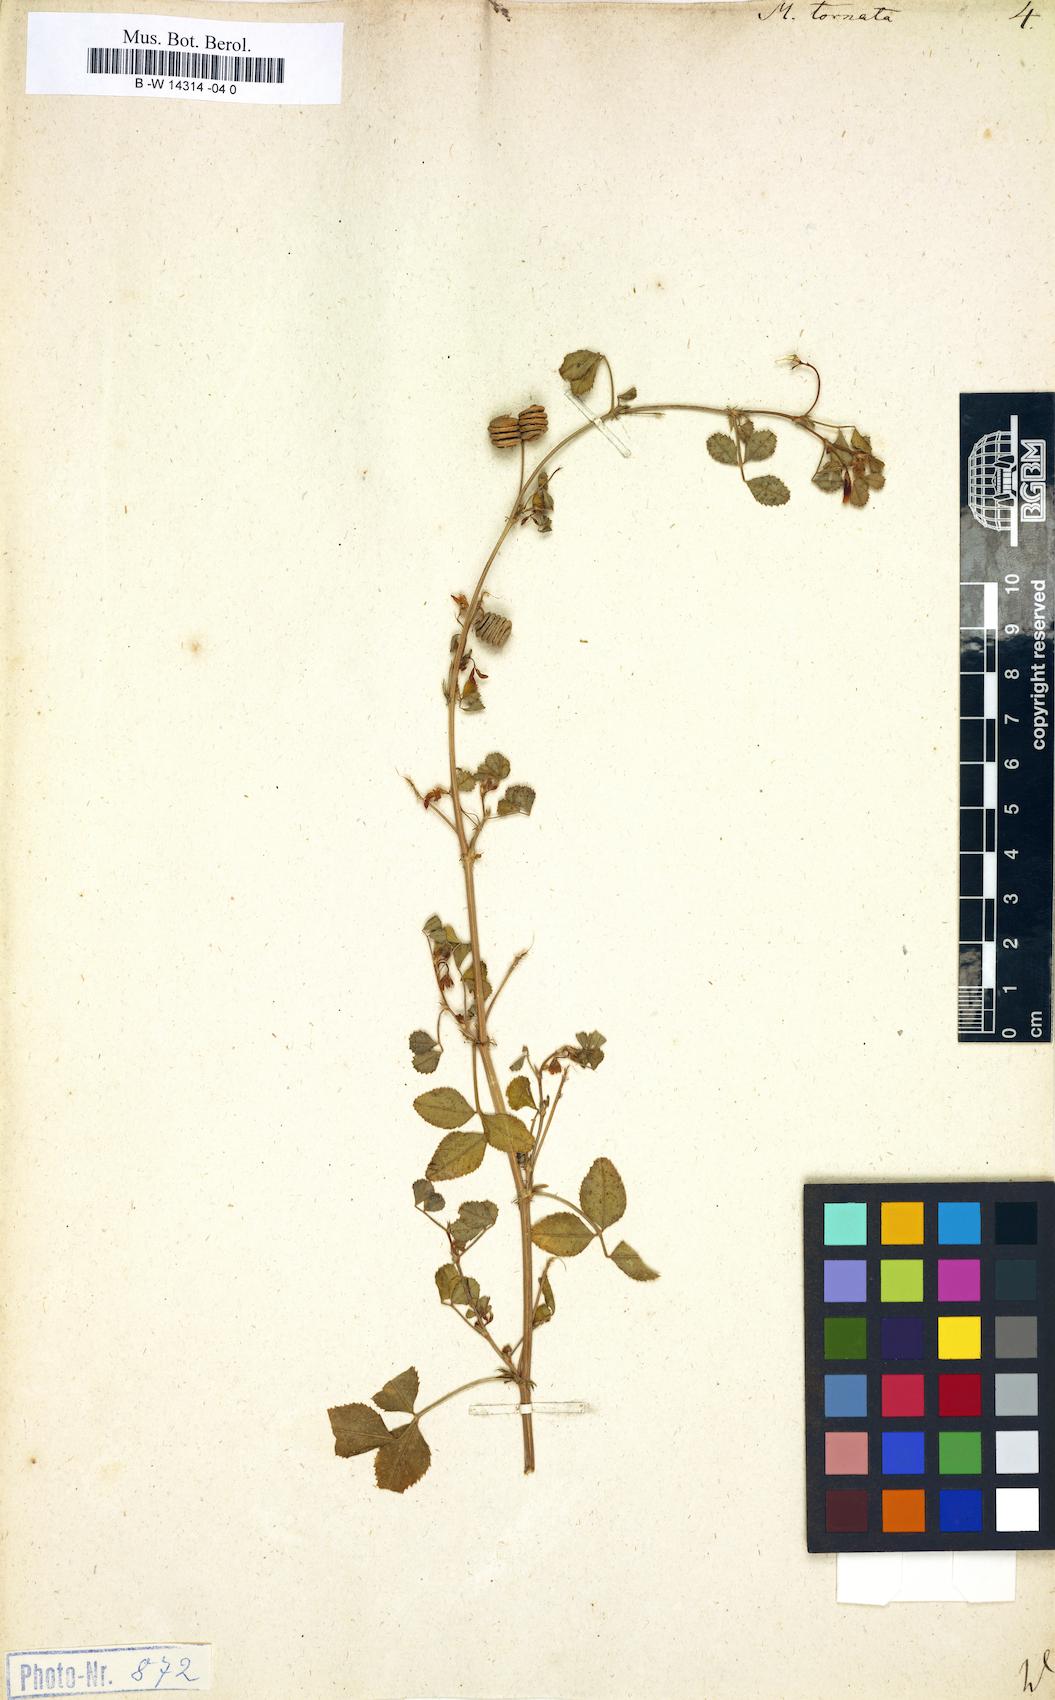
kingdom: Plantae
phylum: Tracheophyta
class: Magnoliopsida
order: Fabales
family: Fabaceae
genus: Medicago
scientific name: Medicago tornata
